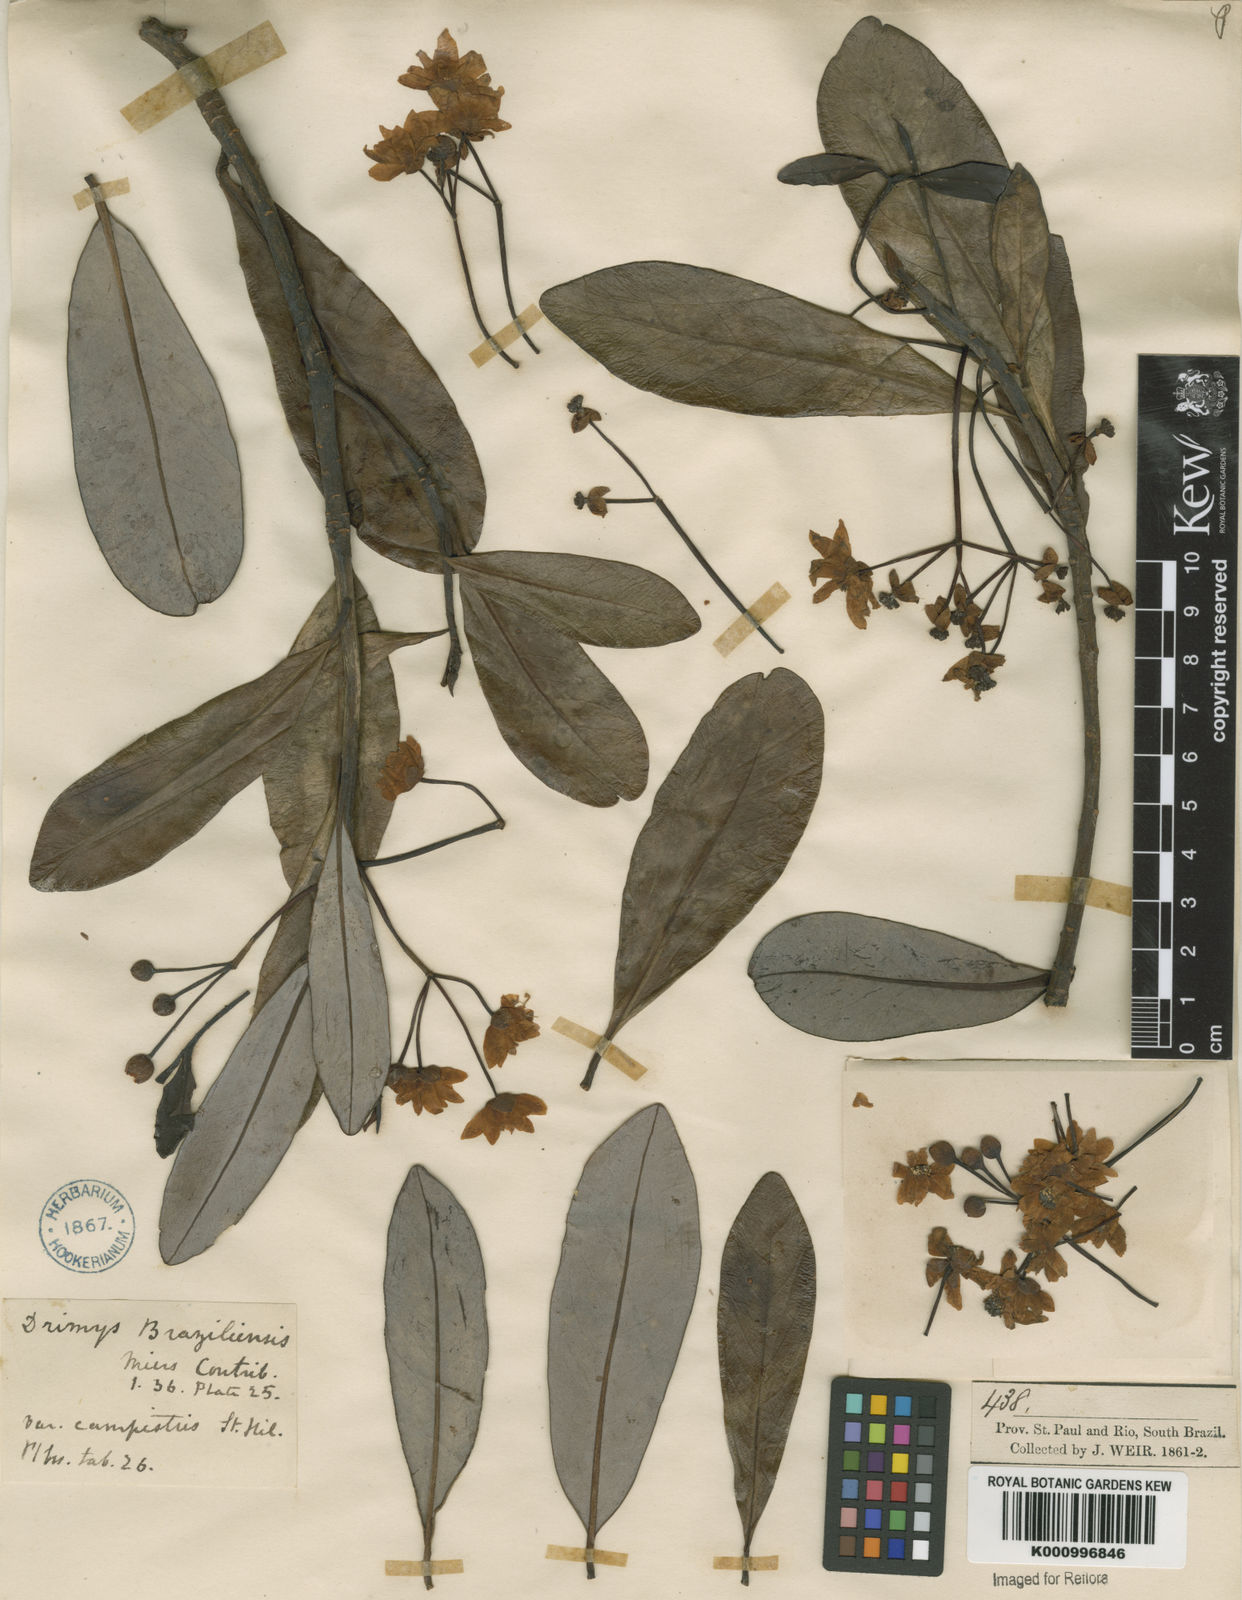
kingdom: Plantae
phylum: Tracheophyta
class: Magnoliopsida
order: Canellales
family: Winteraceae
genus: Drimys
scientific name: Drimys brasiliensis
